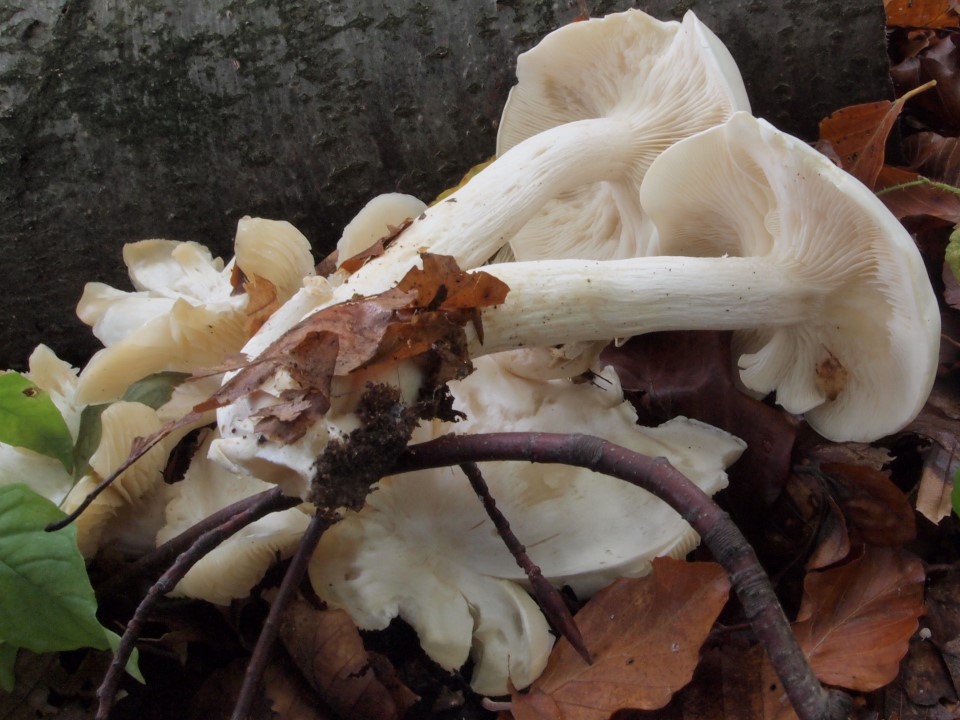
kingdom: Fungi
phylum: Basidiomycota
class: Agaricomycetes
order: Agaricales
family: Tricholomataceae
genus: Leucocybe
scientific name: Leucocybe connata
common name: knippe-tragthat
